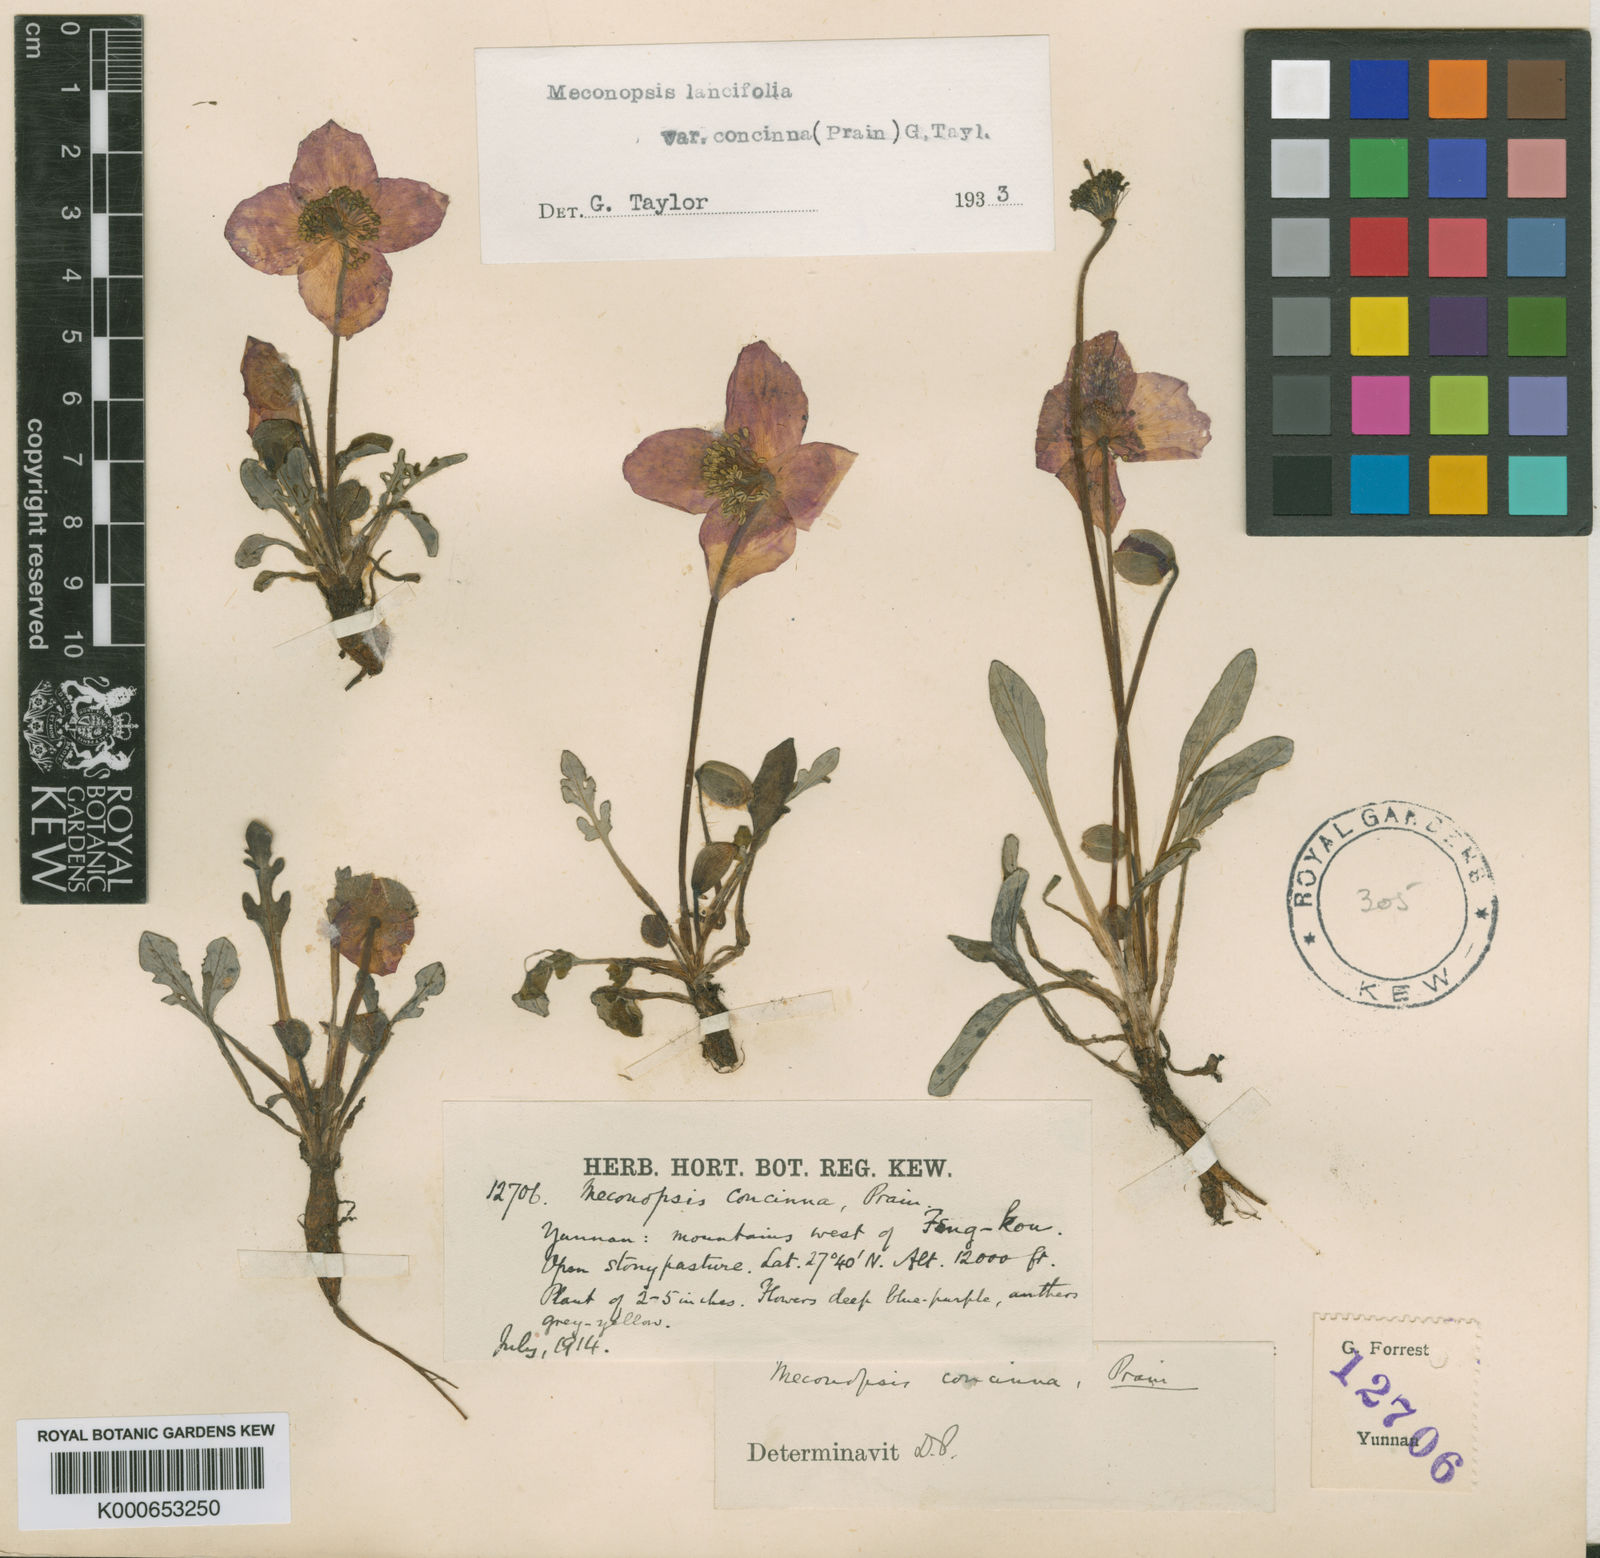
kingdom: Plantae
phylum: Tracheophyta
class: Magnoliopsida
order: Ranunculales
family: Papaveraceae
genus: Meconopsis
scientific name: Meconopsis lancifolia
